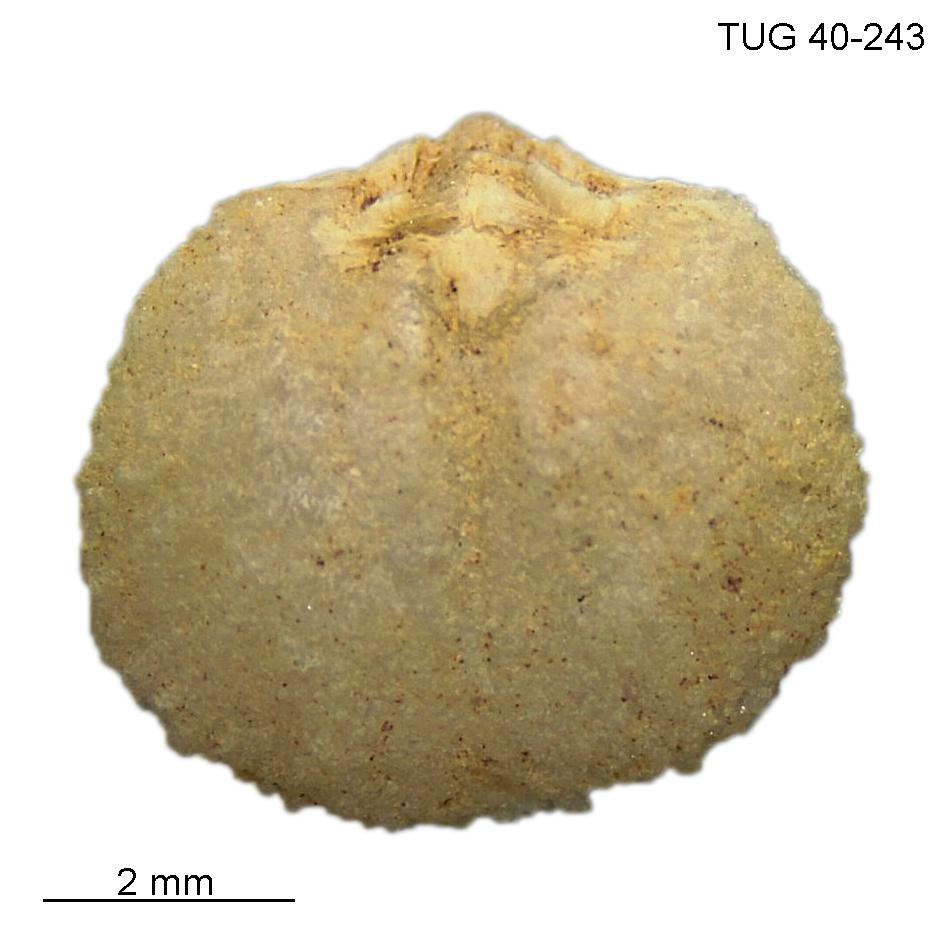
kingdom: Animalia
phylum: Brachiopoda
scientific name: Brachiopoda
